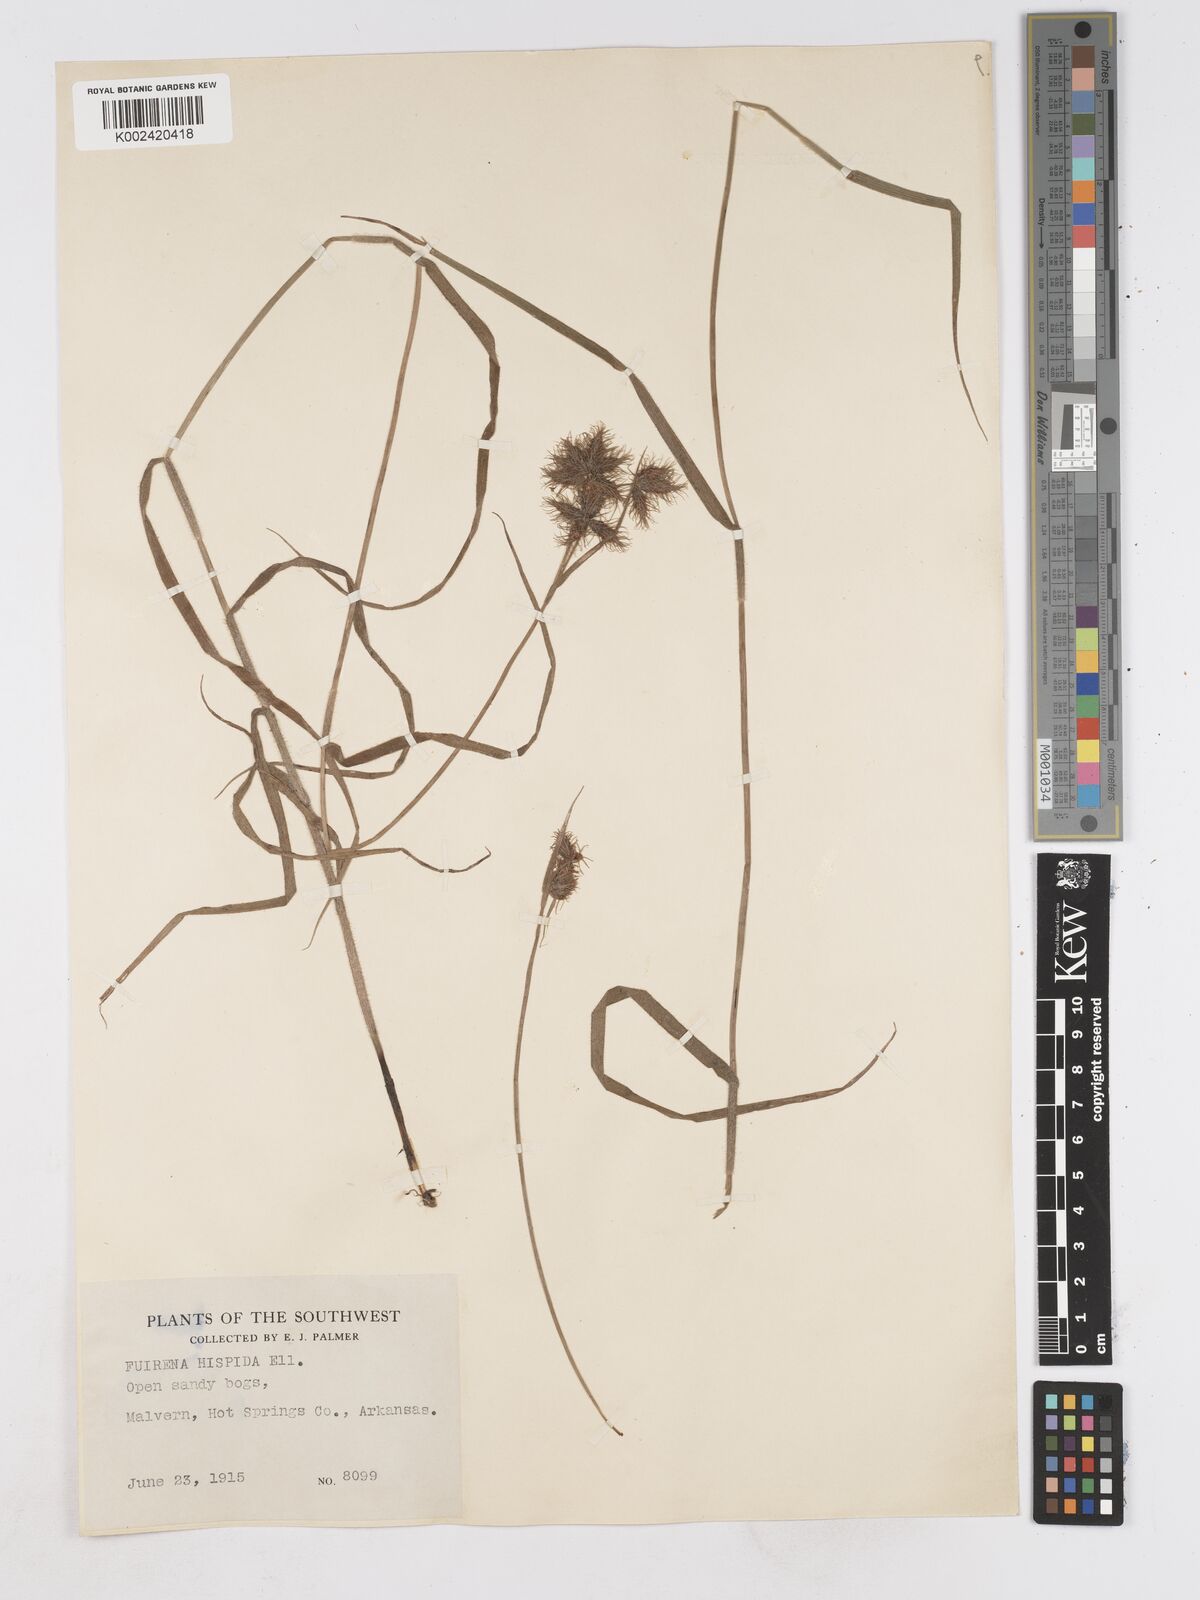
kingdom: Plantae
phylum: Tracheophyta
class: Liliopsida
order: Poales
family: Cyperaceae
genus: Fuirena
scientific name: Fuirena squarrosa
